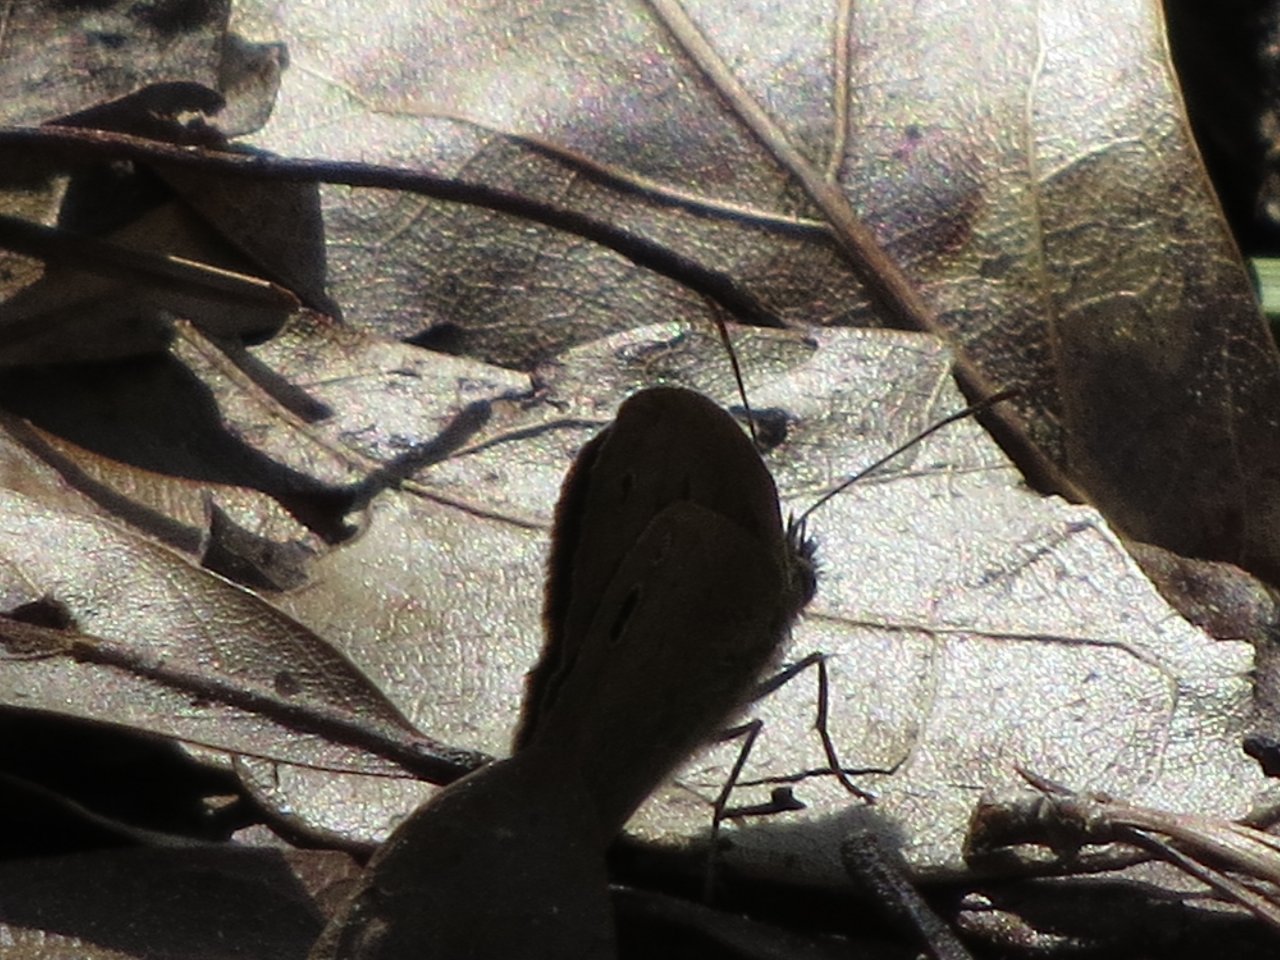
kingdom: Animalia
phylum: Arthropoda
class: Insecta
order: Lepidoptera
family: Nymphalidae
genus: Hermeuptychia
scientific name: Hermeuptychia hermes
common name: Carolina Satyr
